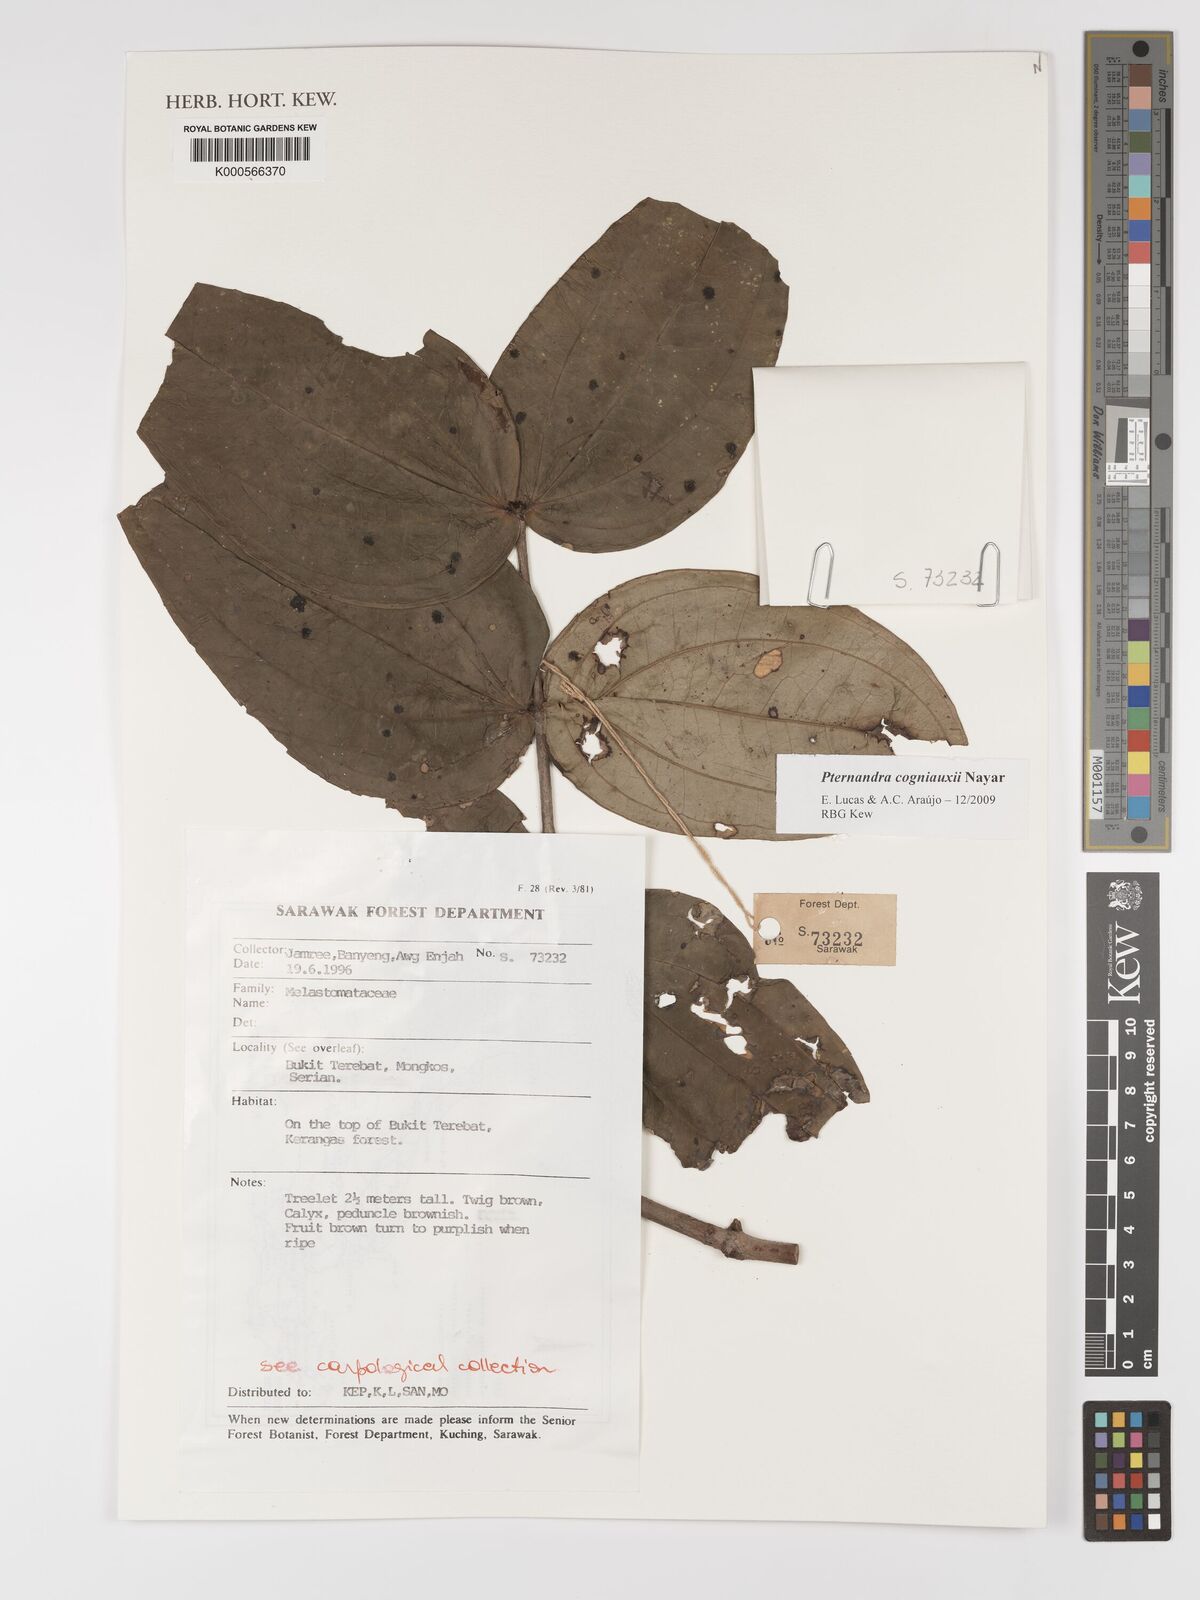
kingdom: Plantae
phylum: Tracheophyta
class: Magnoliopsida
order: Myrtales
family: Melastomataceae
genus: Pternandra
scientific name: Pternandra cogniauxii
